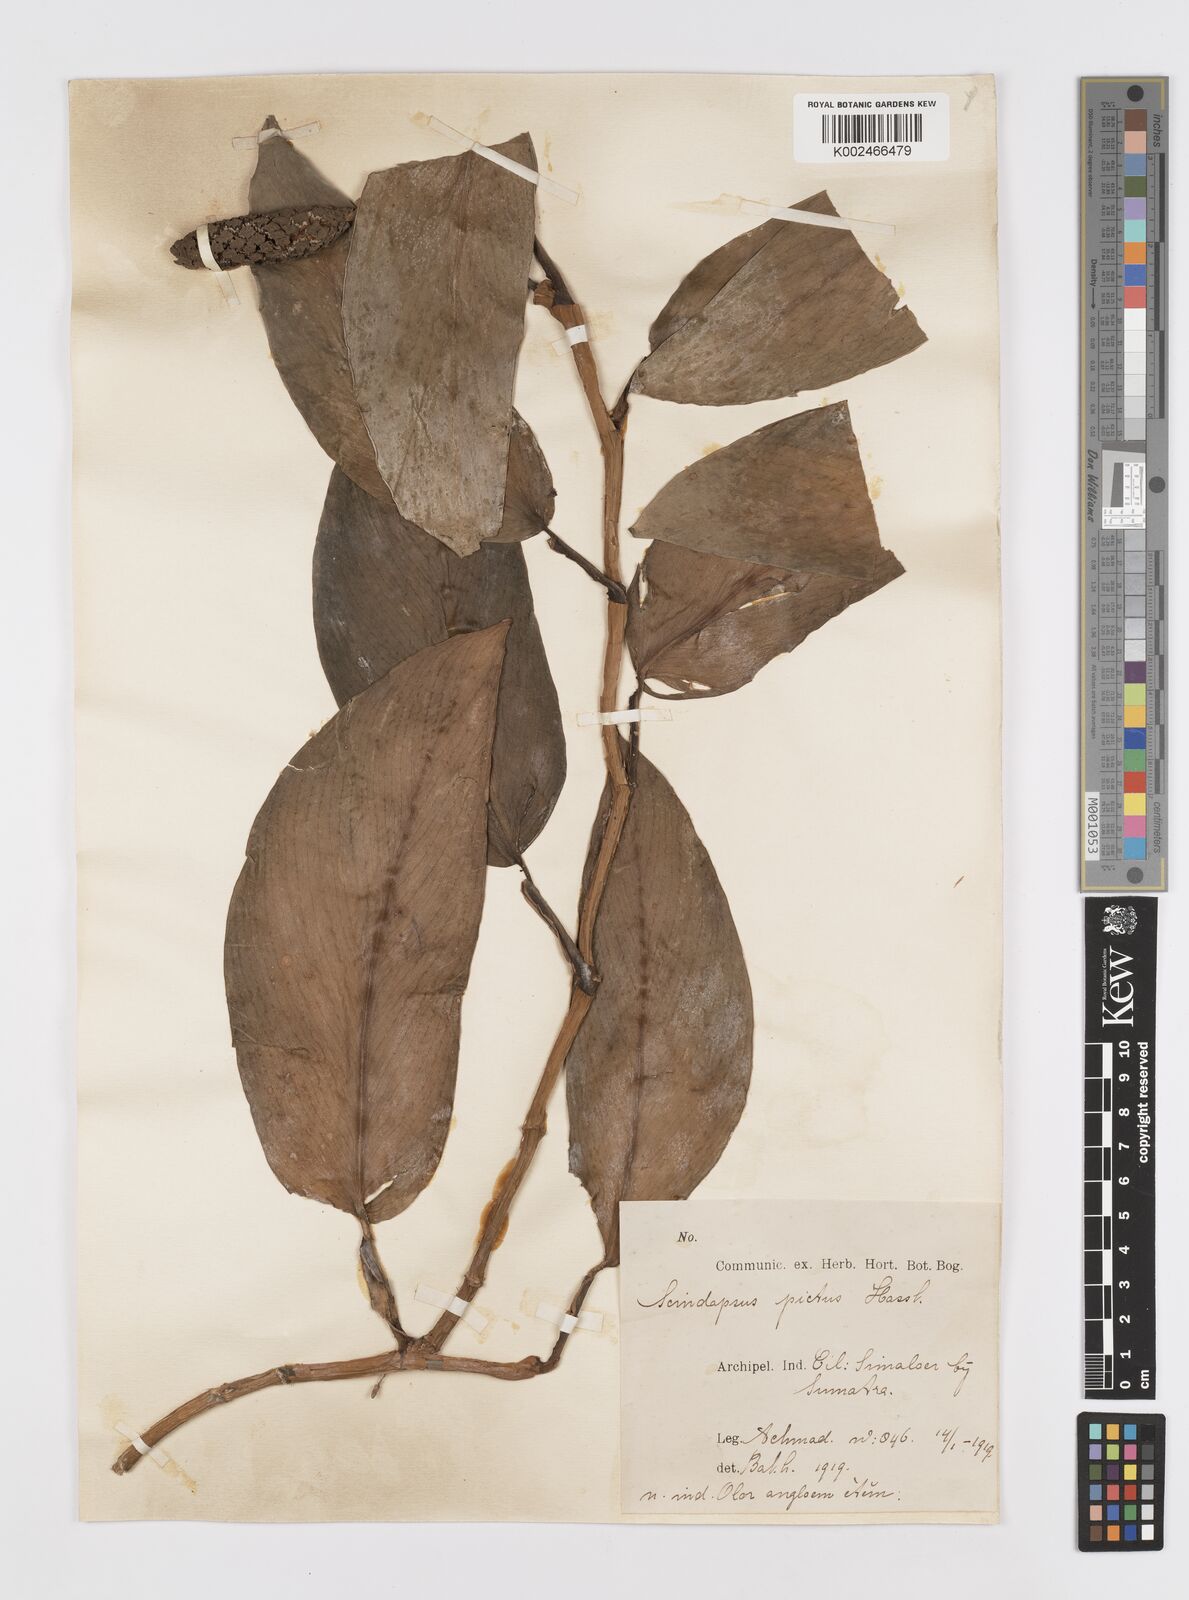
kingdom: Plantae
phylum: Tracheophyta
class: Liliopsida
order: Alismatales
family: Araceae
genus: Scindapsus
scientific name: Scindapsus pictus
